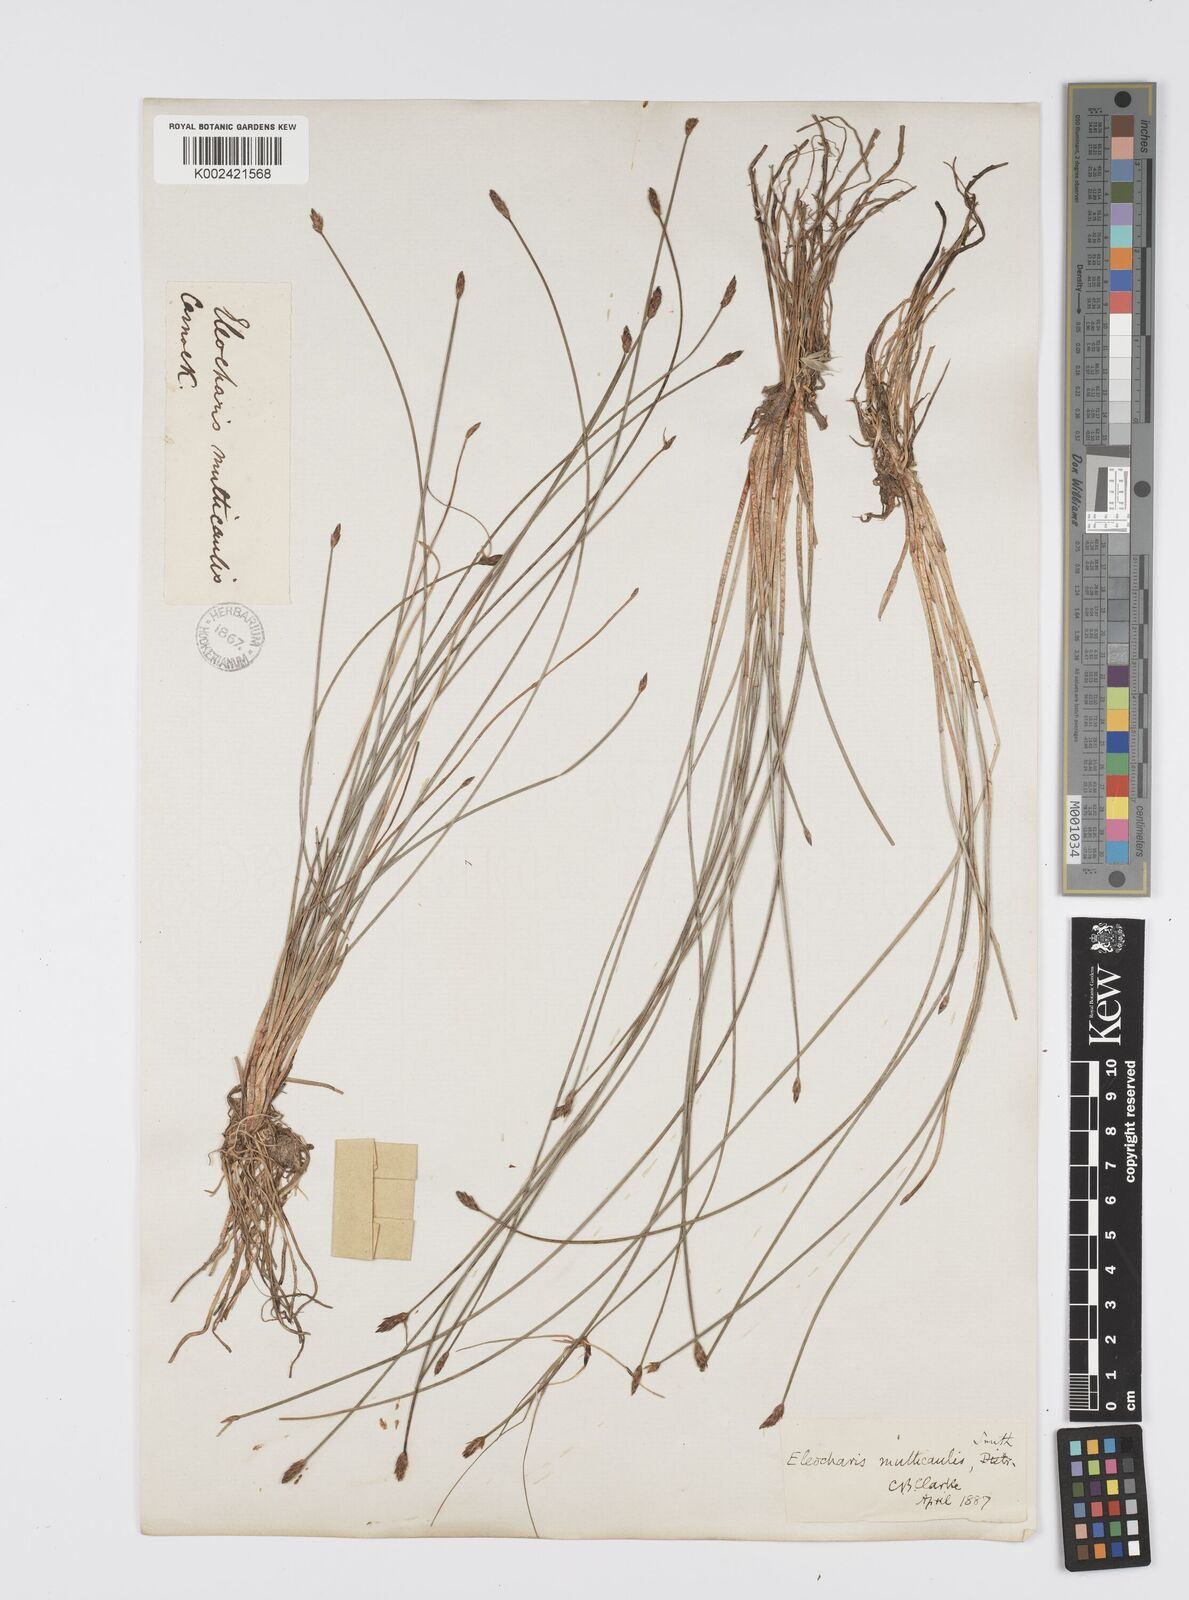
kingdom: Plantae
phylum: Tracheophyta
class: Liliopsida
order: Poales
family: Cyperaceae
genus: Eleocharis
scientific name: Eleocharis multicaulis
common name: Many-stalked spike-rush
